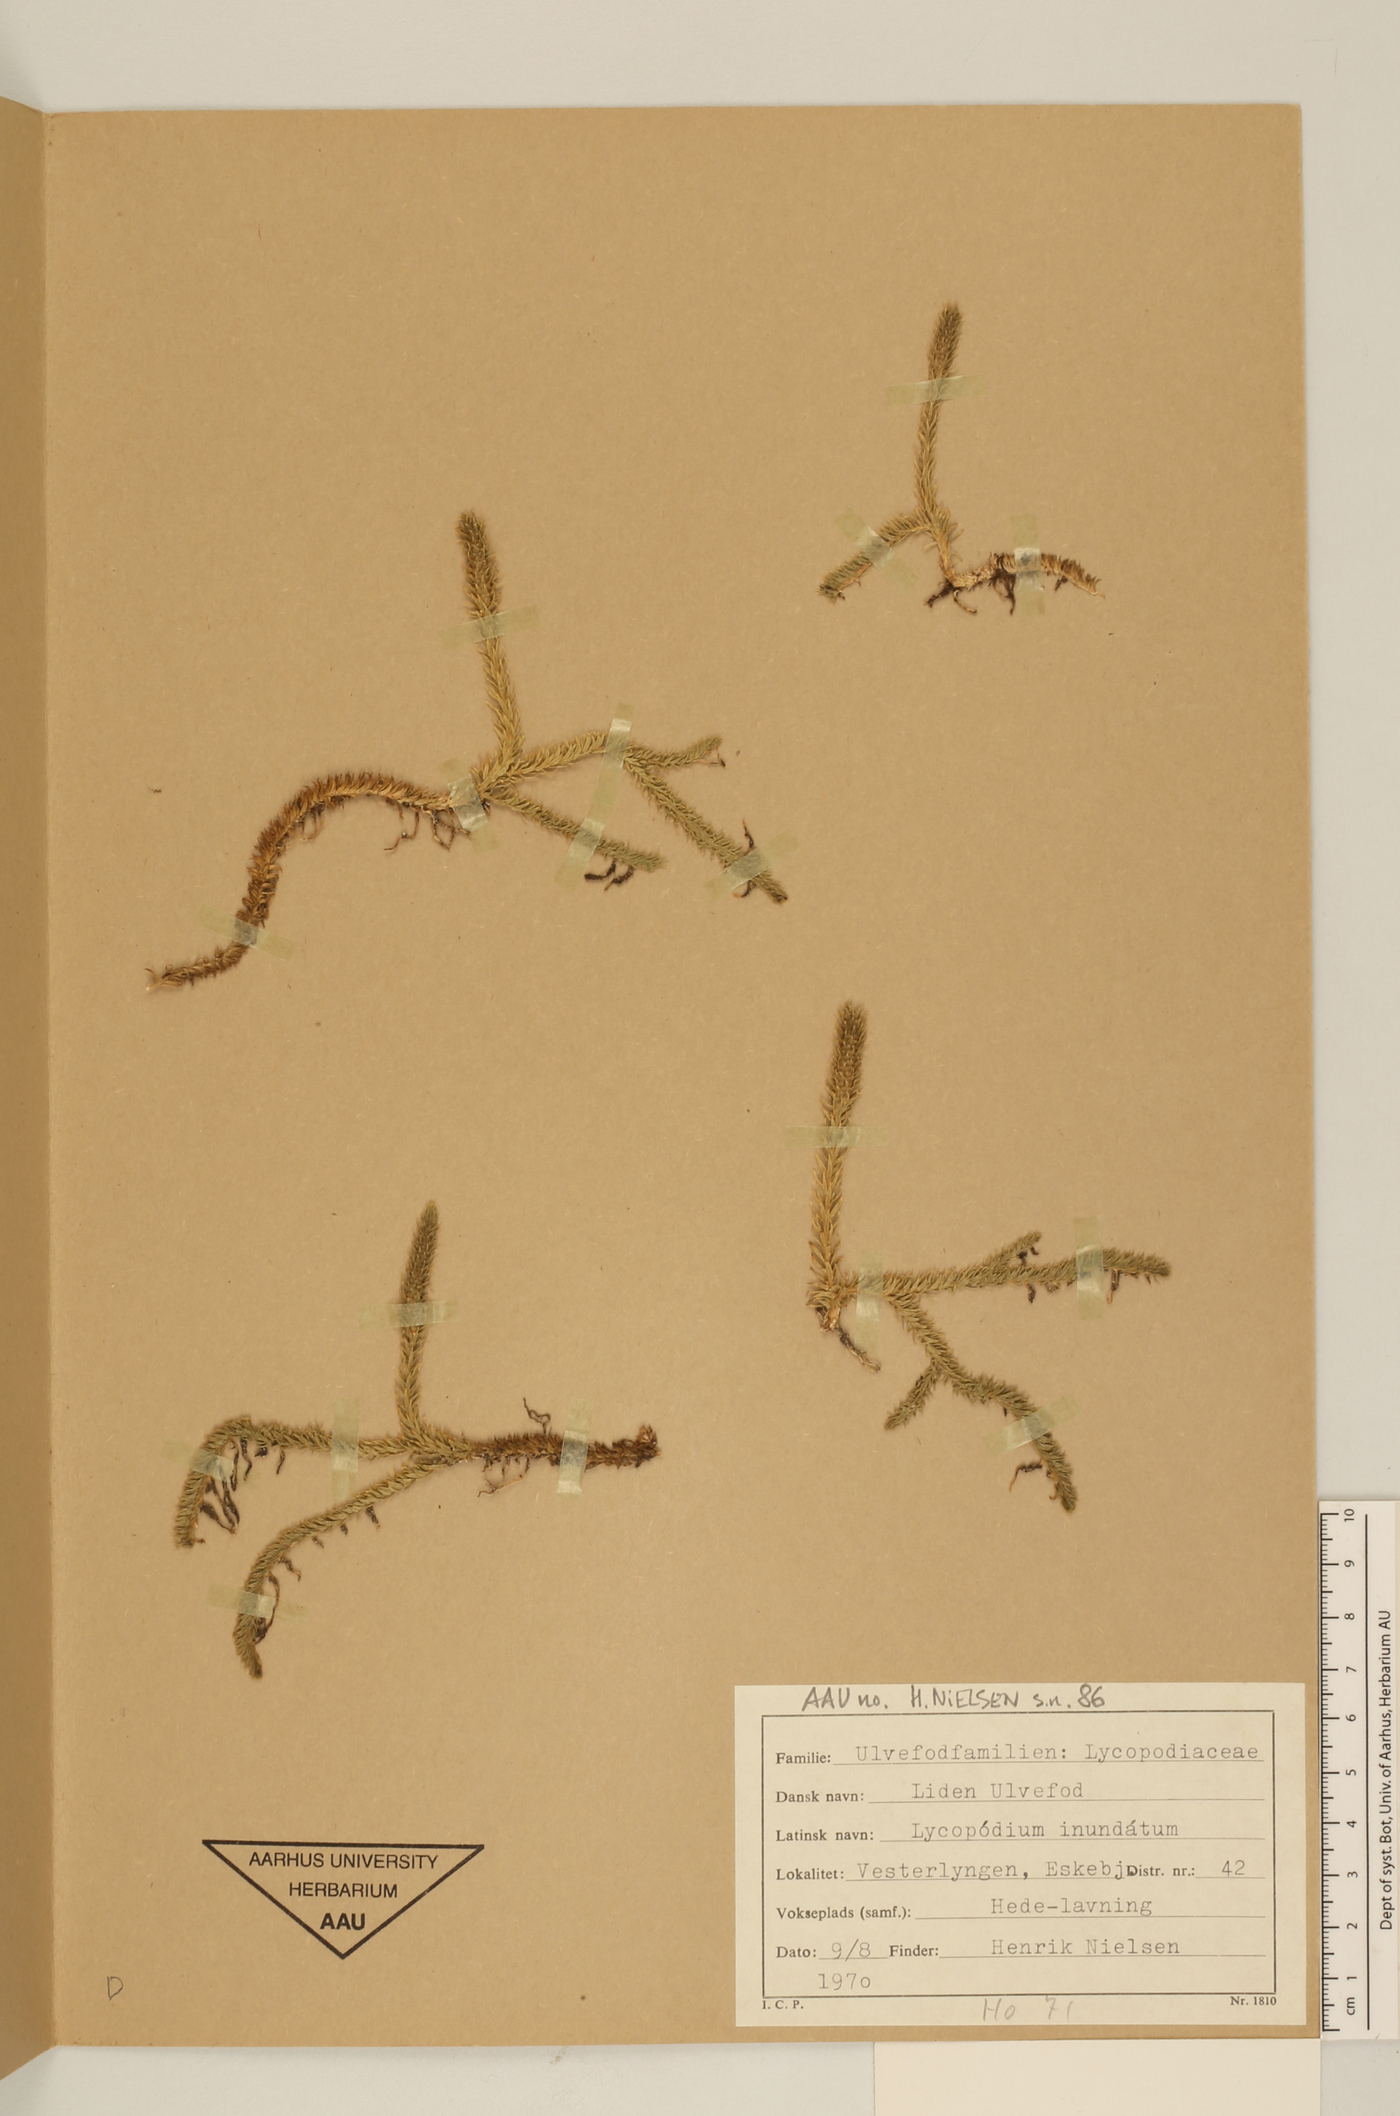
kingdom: Plantae
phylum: Tracheophyta
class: Lycopodiopsida
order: Lycopodiales
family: Lycopodiaceae
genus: Lycopodiella
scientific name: Lycopodiella inundata
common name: Marsh clubmoss
